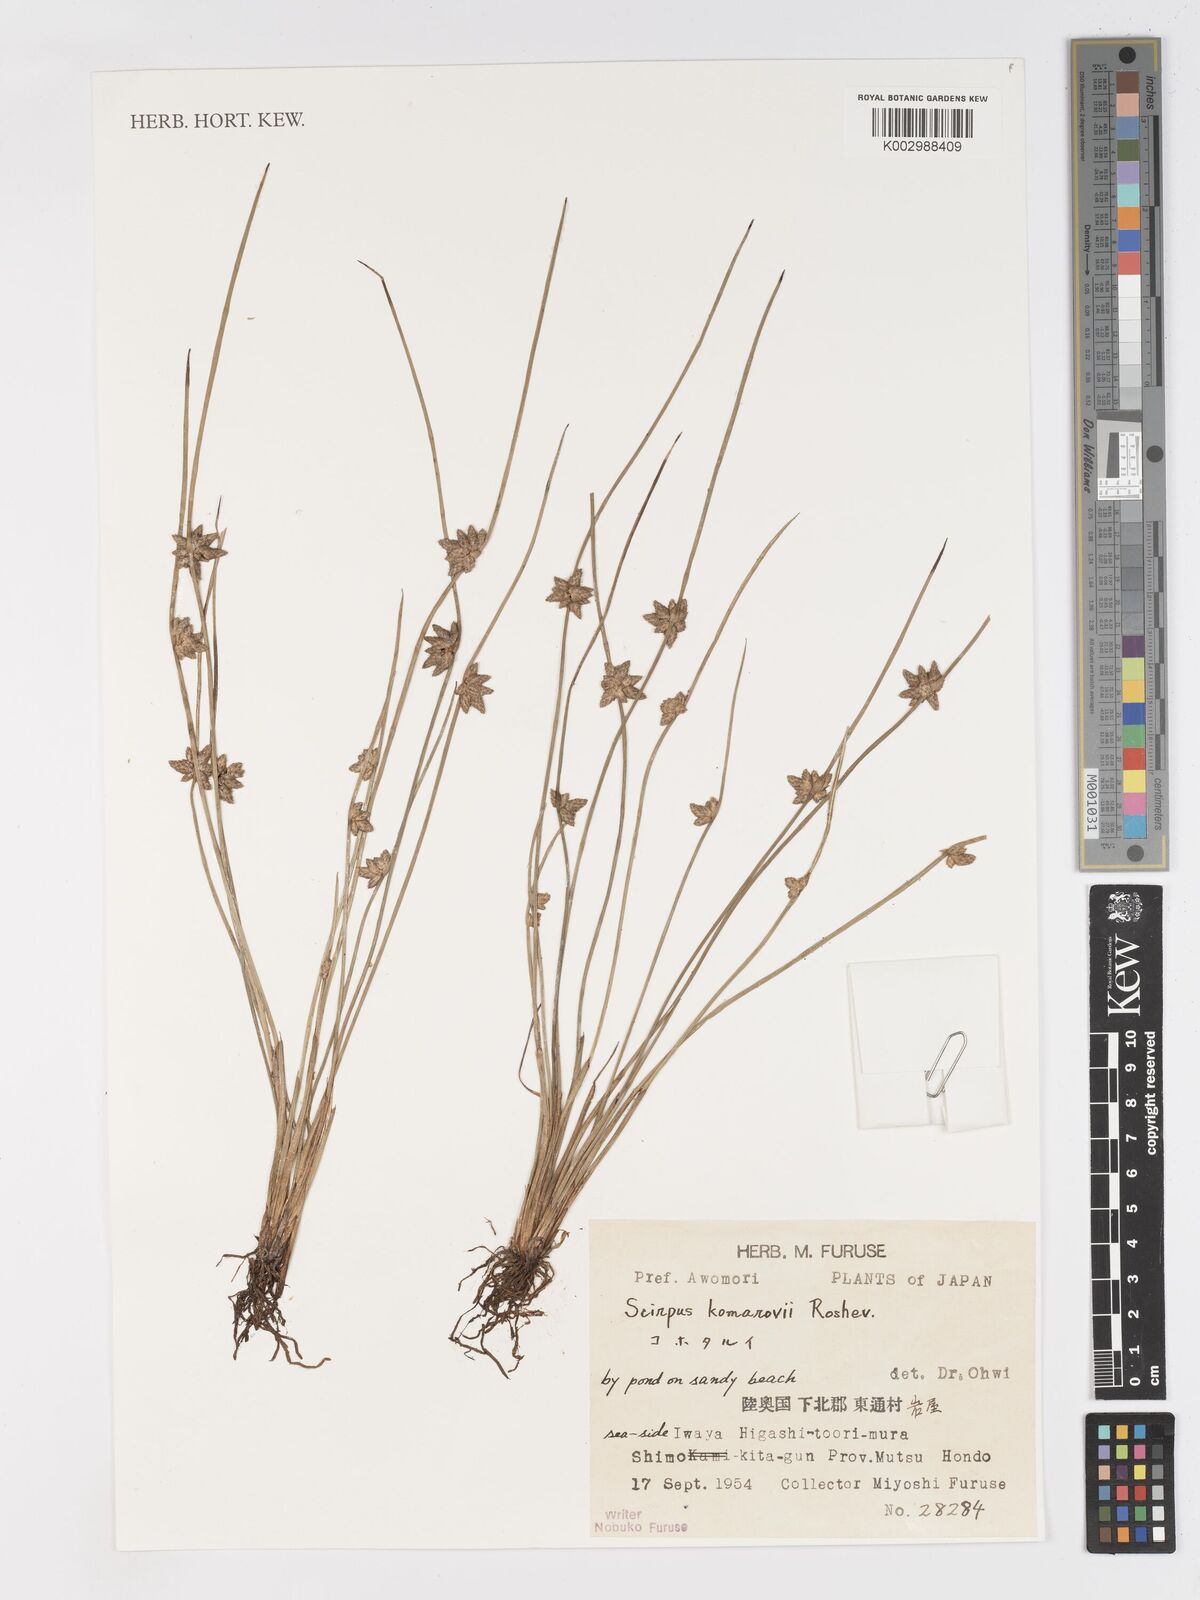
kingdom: Plantae
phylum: Tracheophyta
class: Liliopsida
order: Poales
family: Cyperaceae
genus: Schoenoplectiella
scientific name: Schoenoplectiella komarovii
